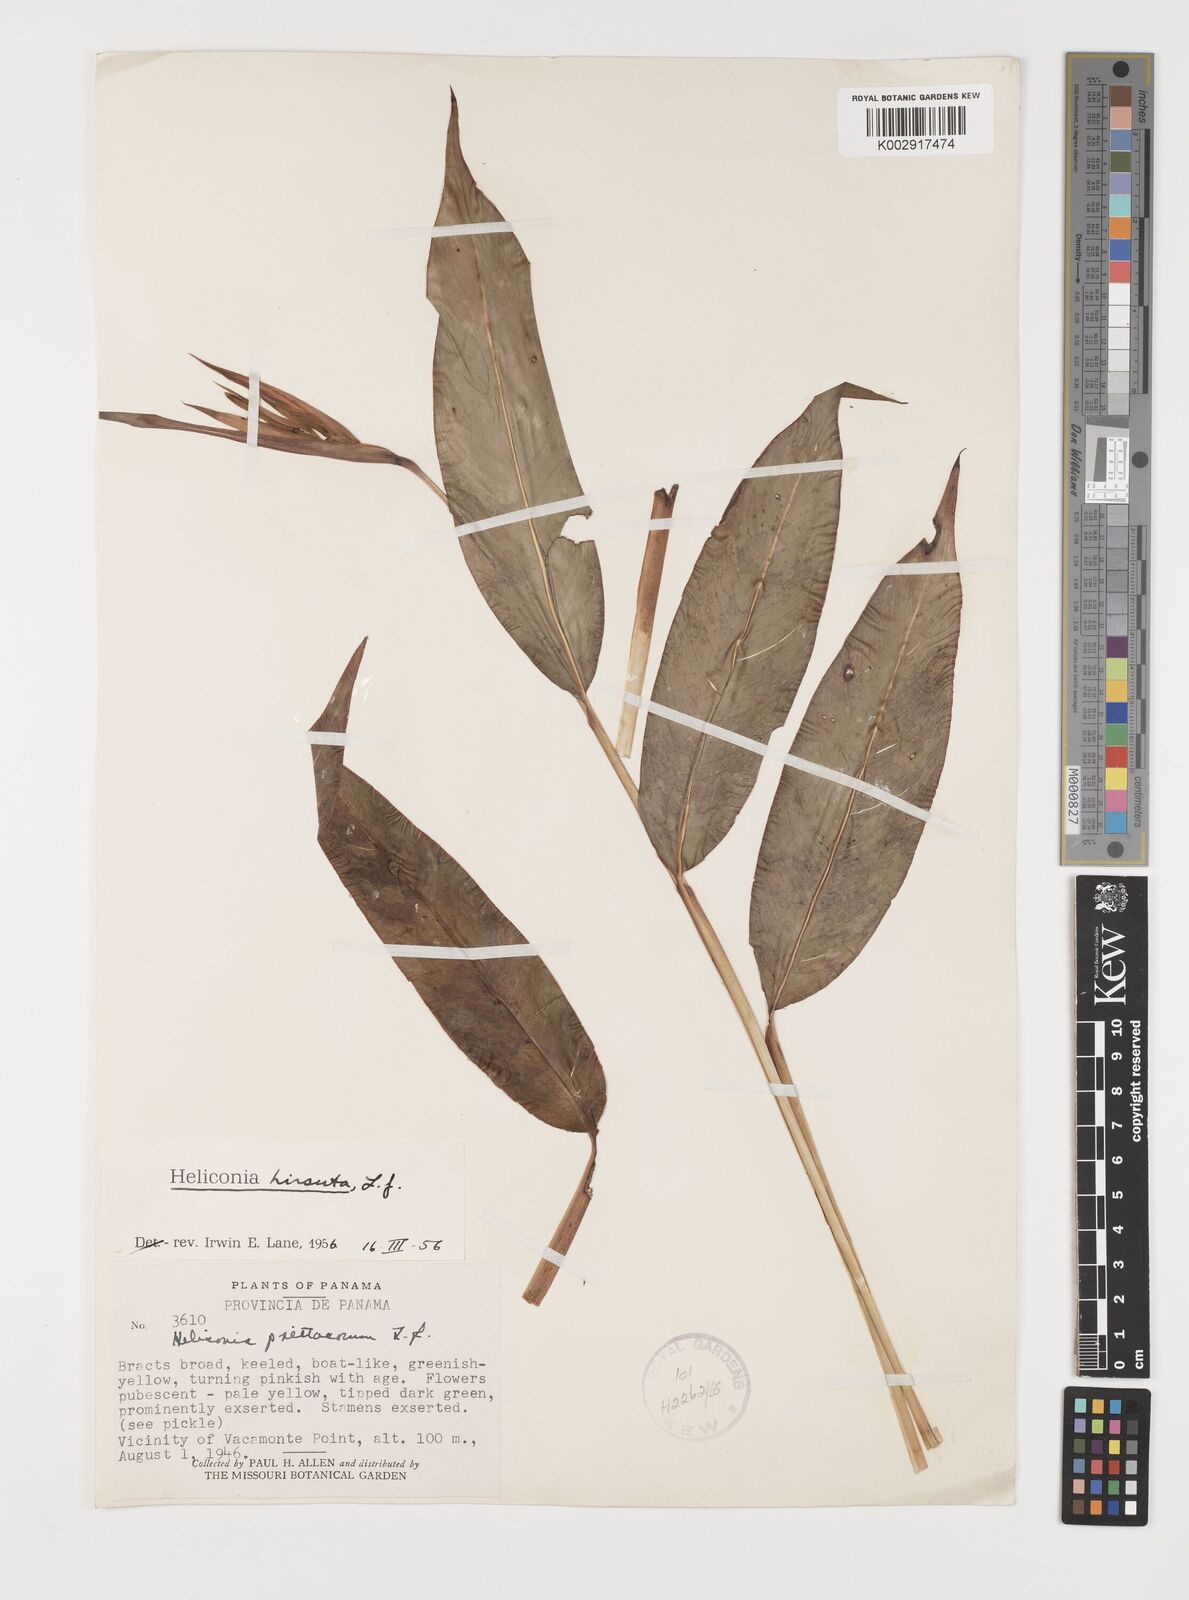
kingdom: Plantae
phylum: Tracheophyta
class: Liliopsida
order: Zingiberales
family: Heliconiaceae
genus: Heliconia
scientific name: Heliconia hirsuta
